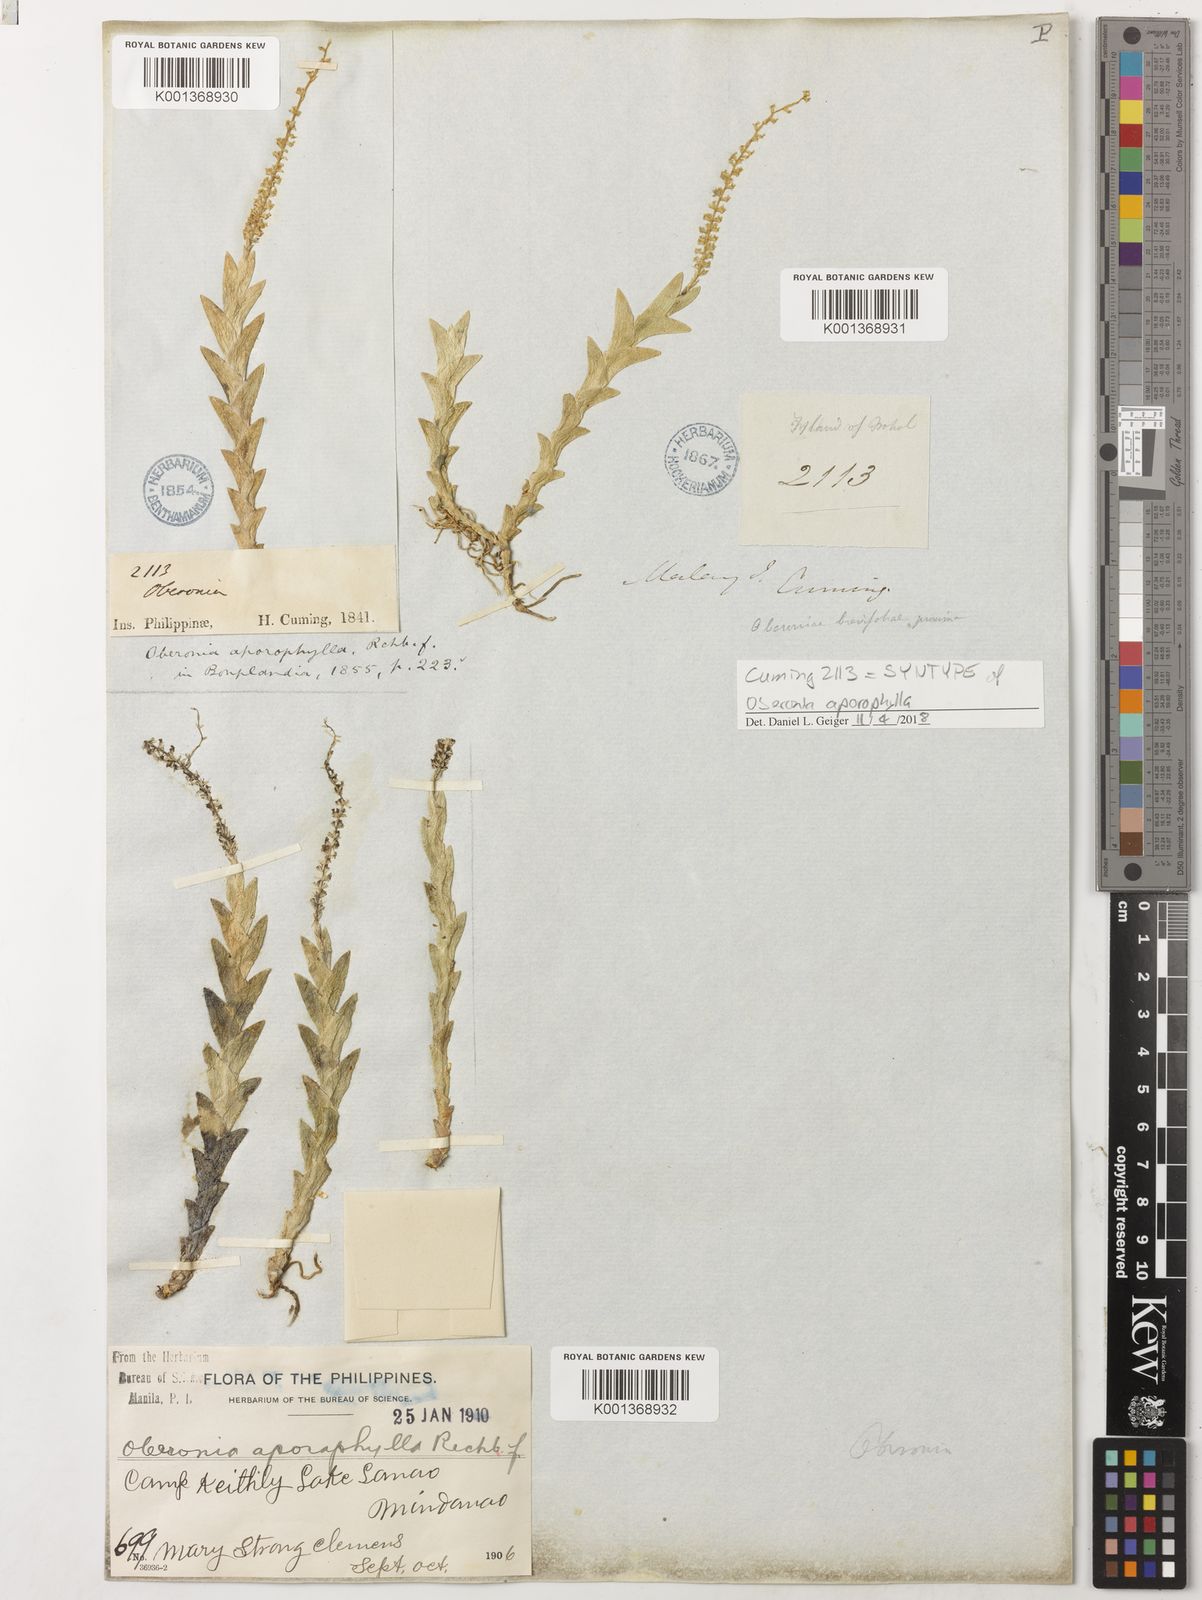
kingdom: Plantae
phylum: Tracheophyta
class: Liliopsida
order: Asparagales
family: Orchidaceae
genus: Oberonia
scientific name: Oberonia aporophylla
